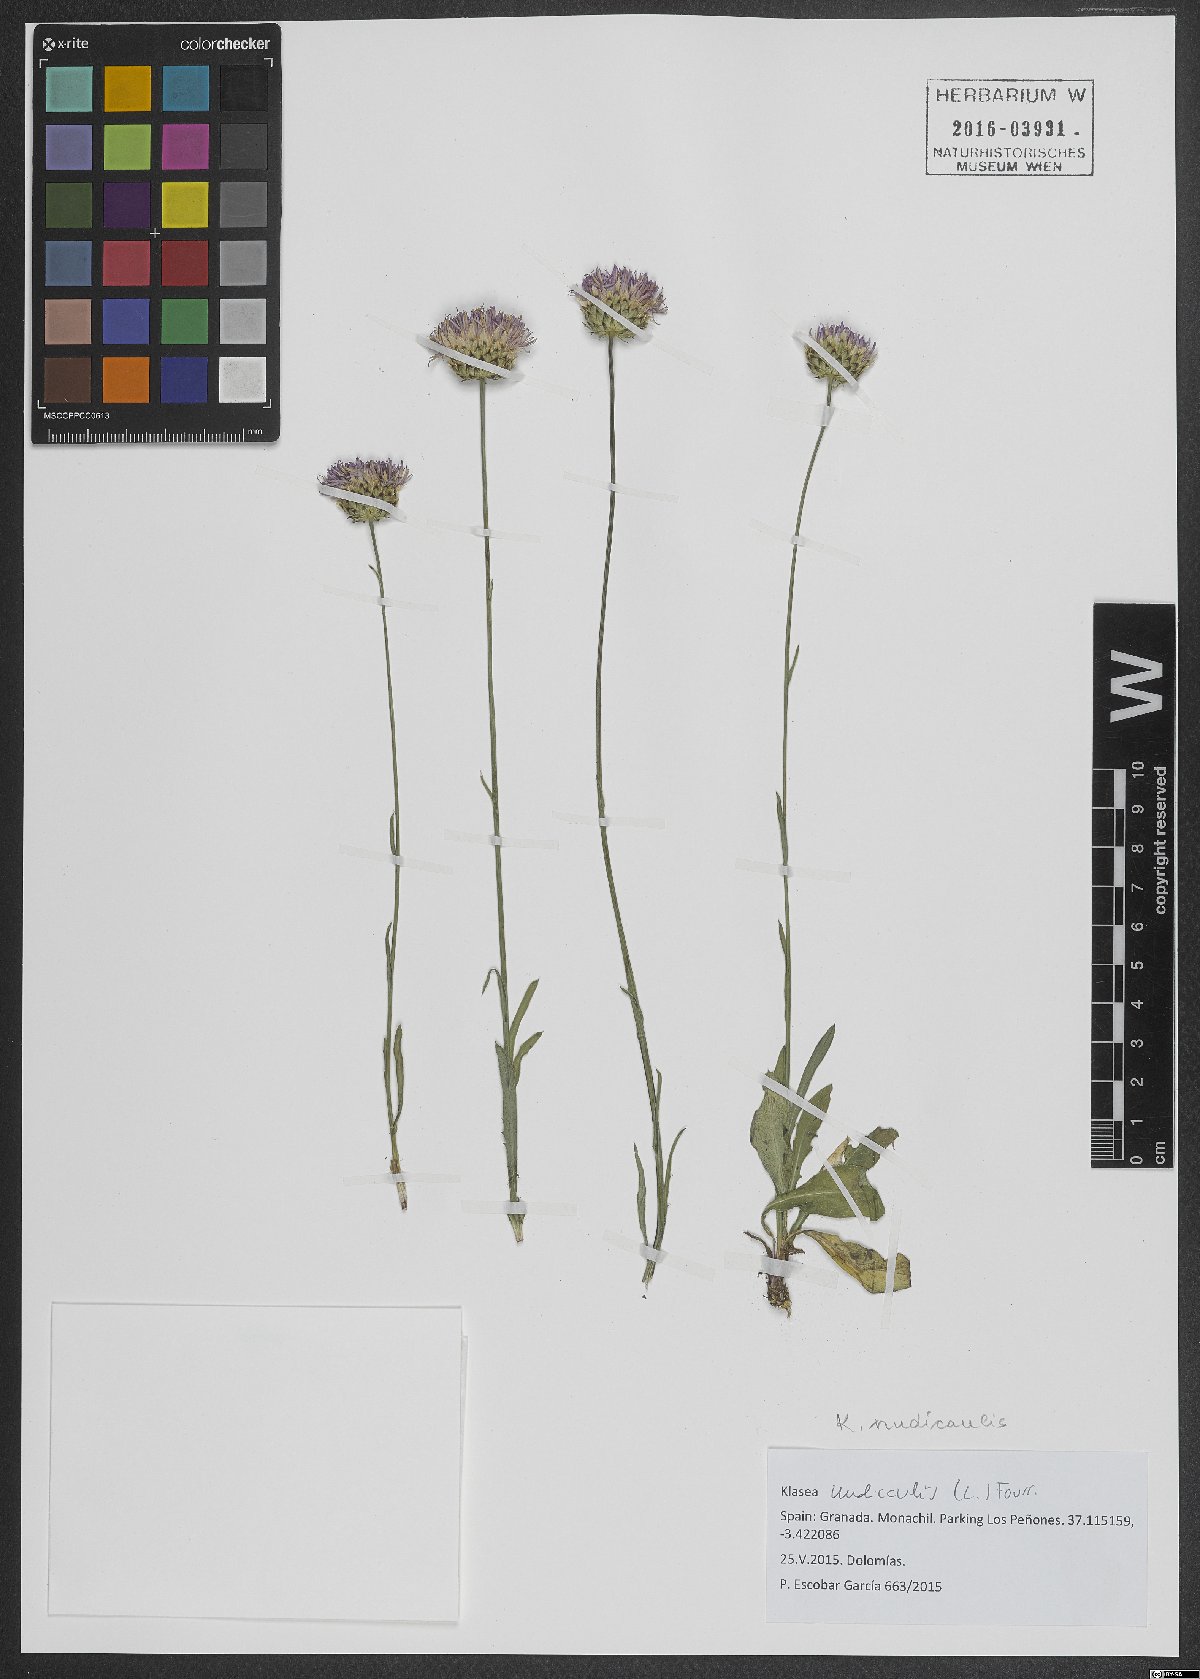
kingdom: Plantae
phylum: Tracheophyta
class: Magnoliopsida
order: Asterales
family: Asteraceae
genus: Klasea
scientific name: Klasea nudicaulis
